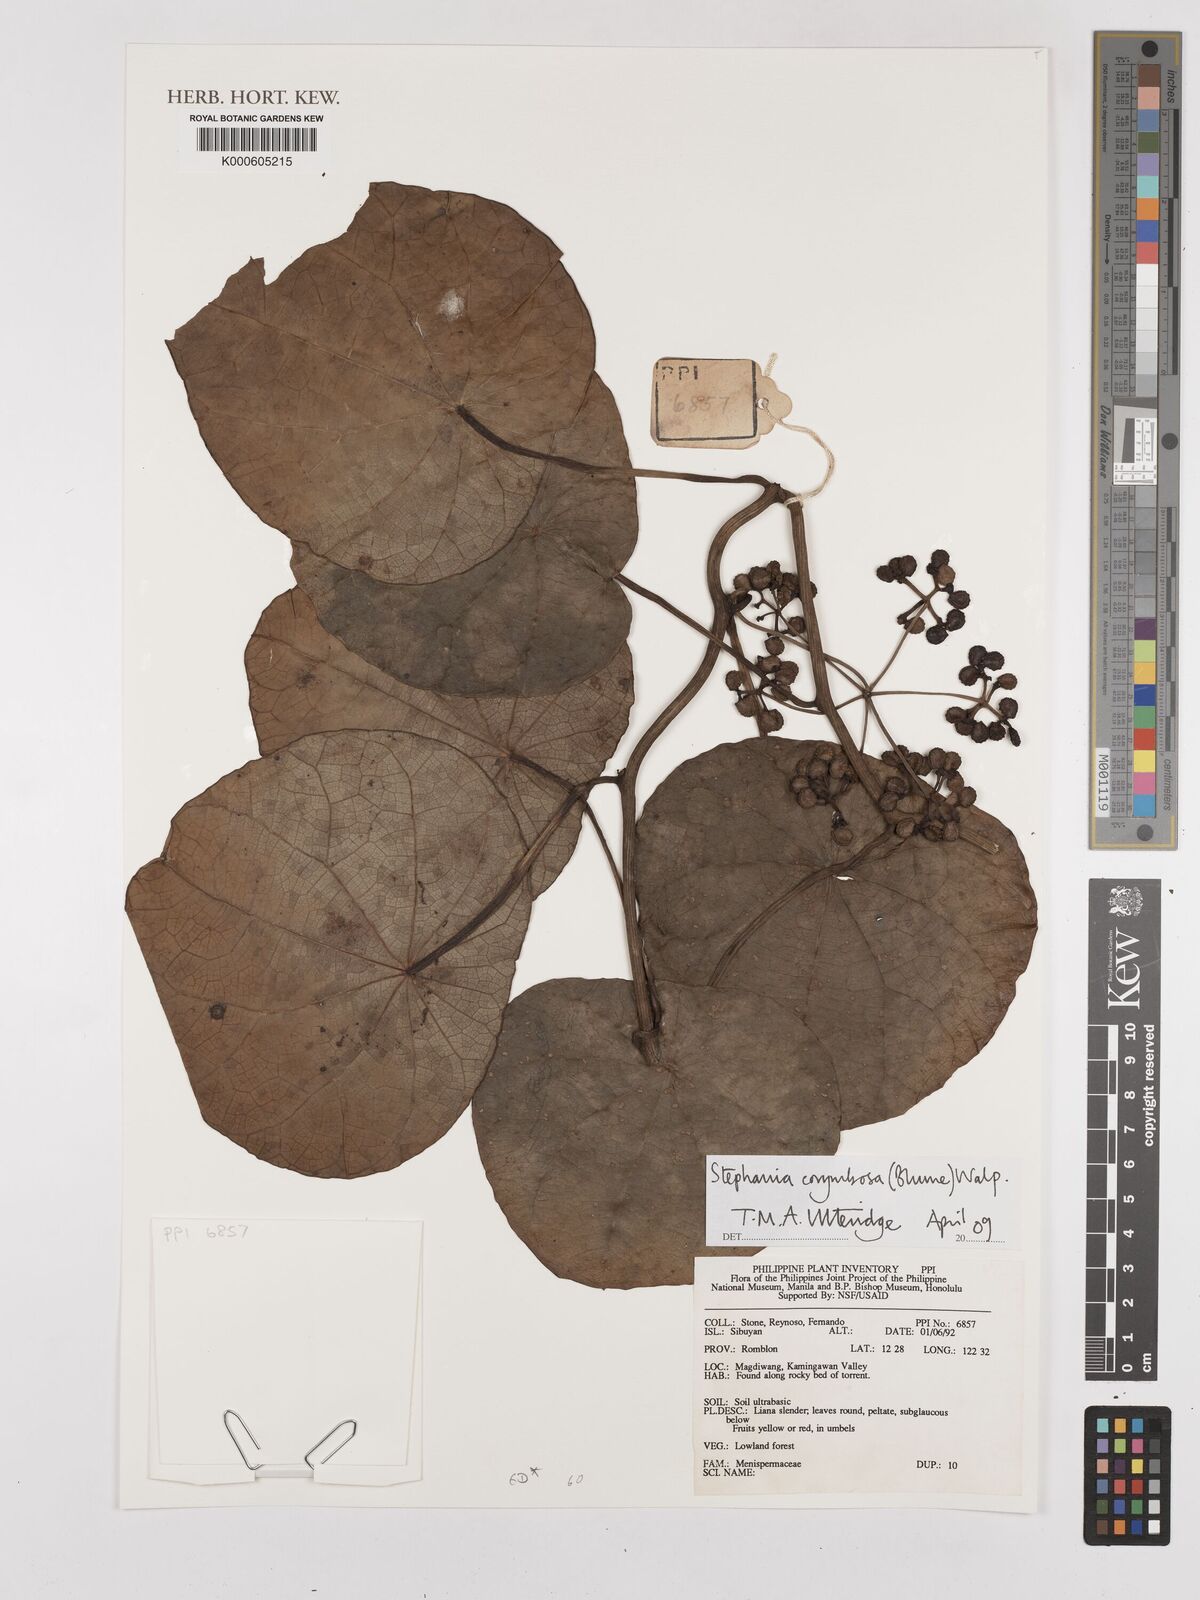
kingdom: Plantae
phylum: Tracheophyta
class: Magnoliopsida
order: Ranunculales
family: Menispermaceae
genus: Stephania
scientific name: Stephania corymbosa
